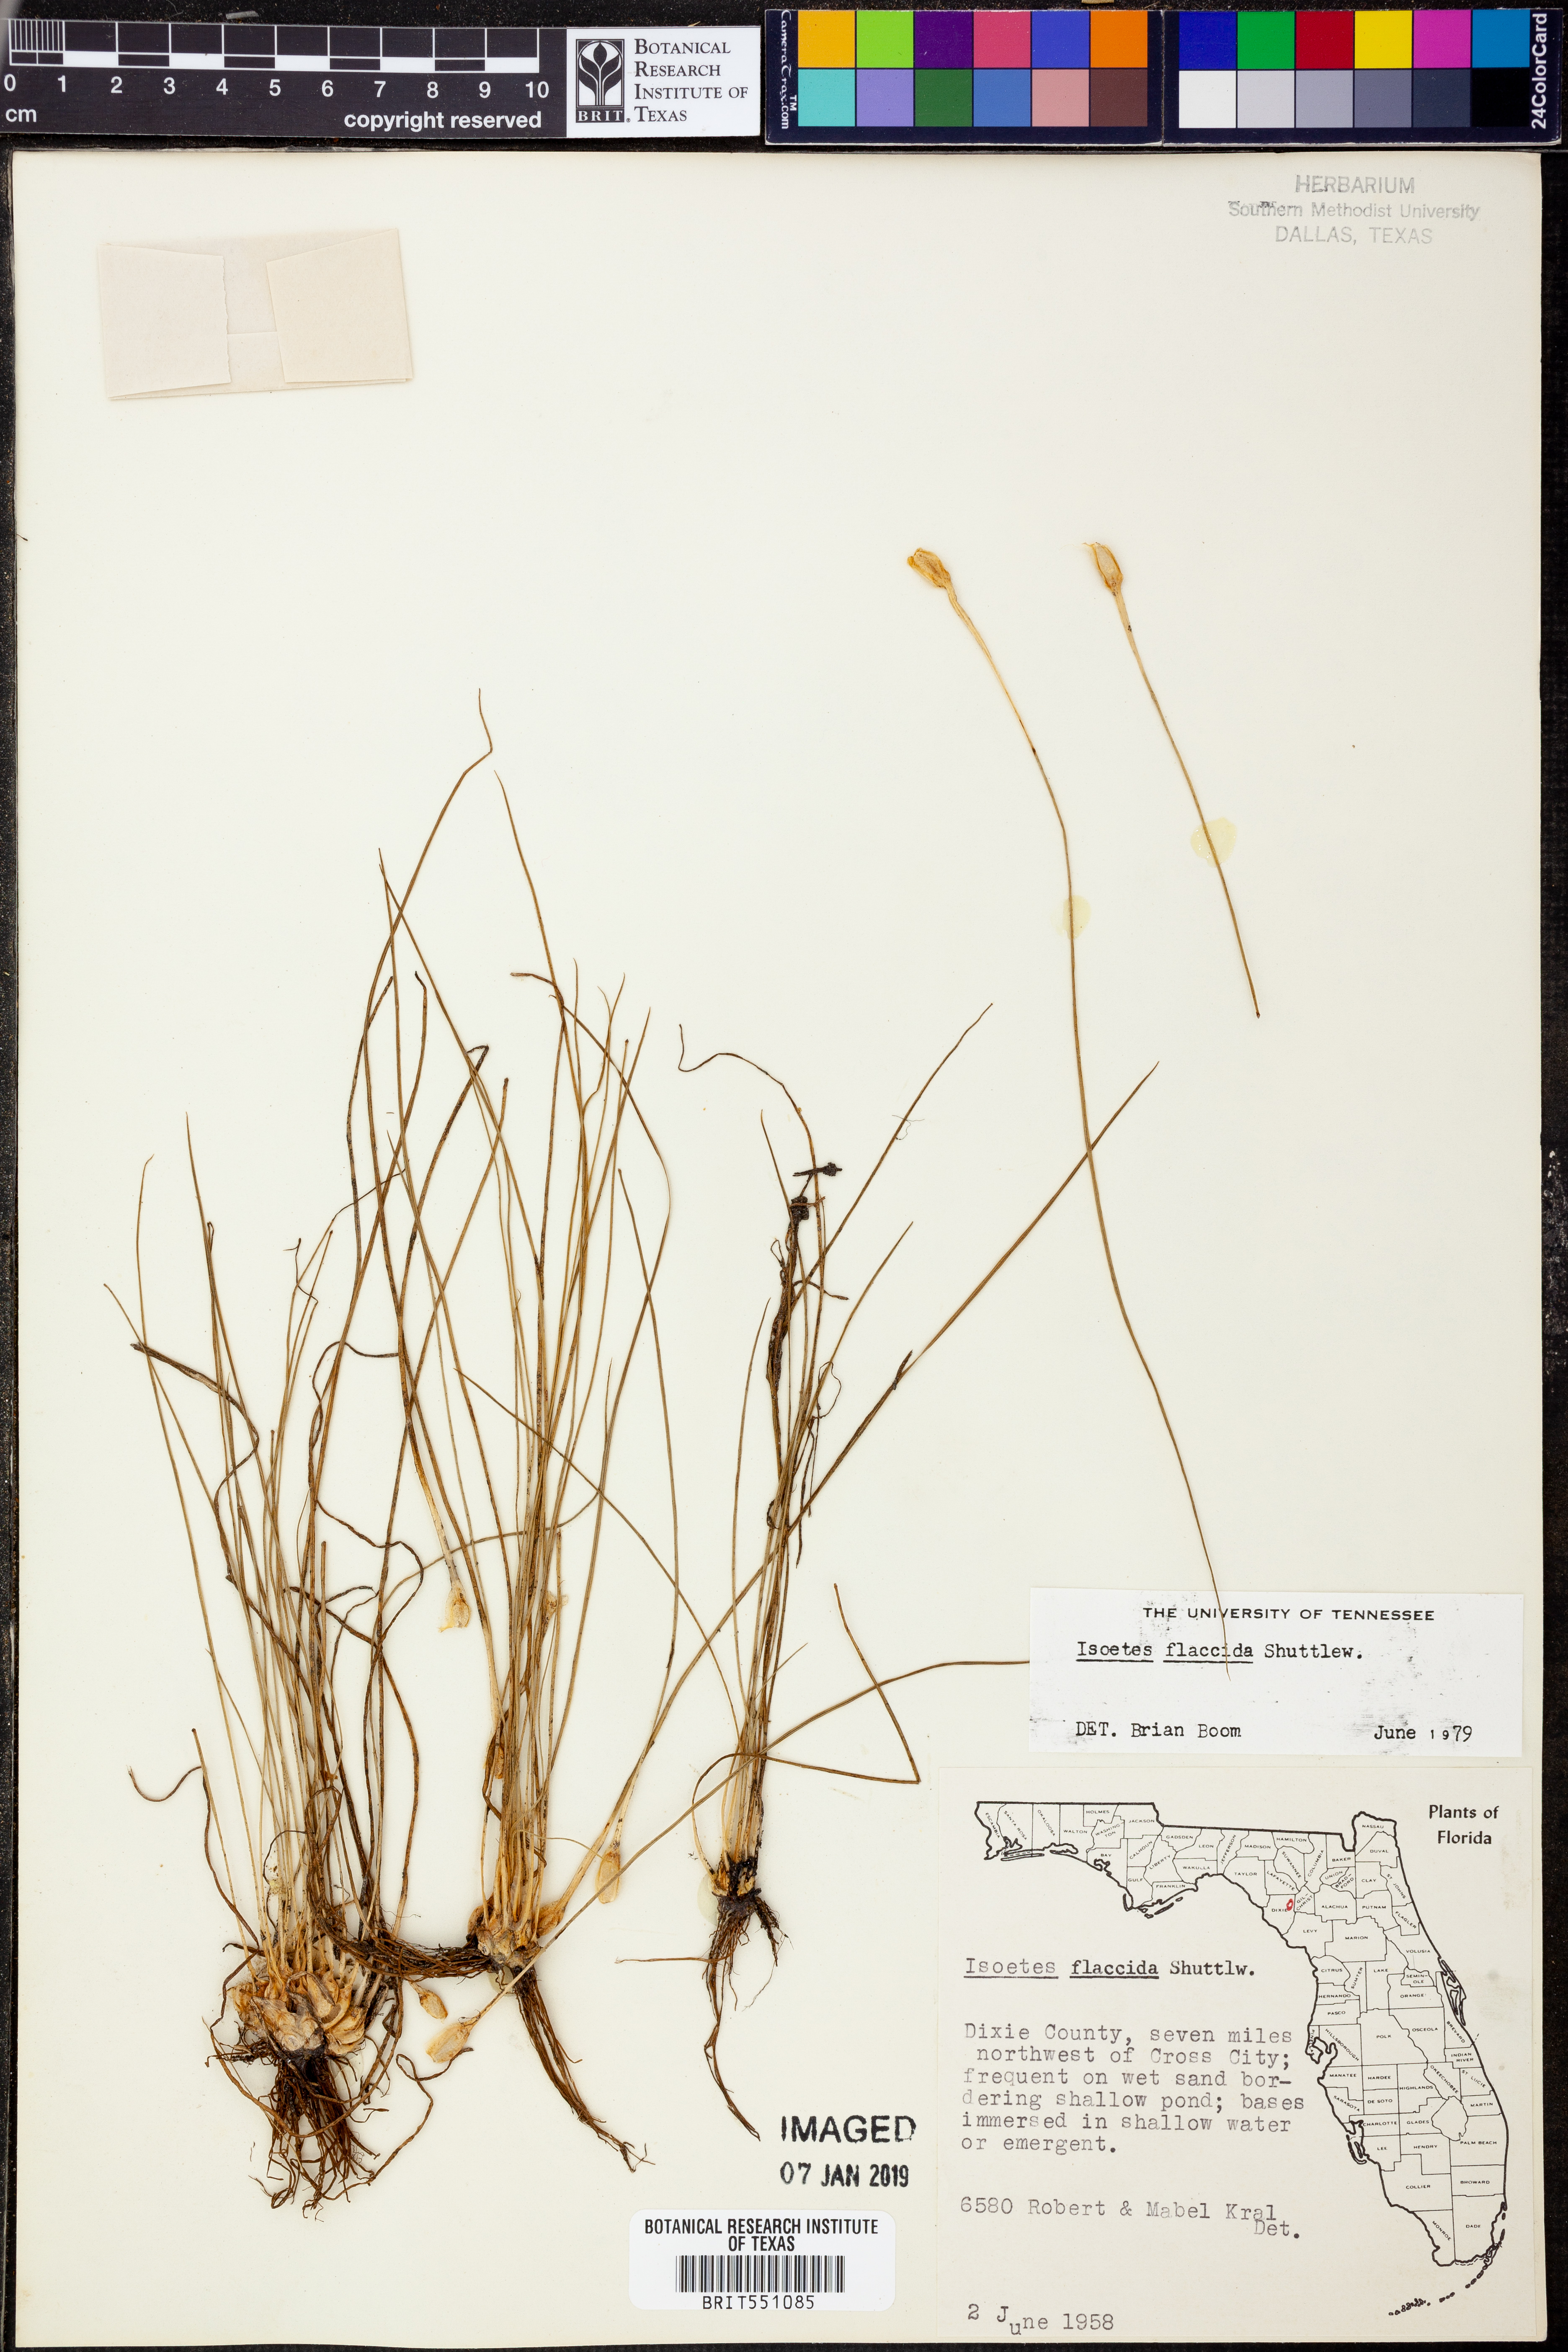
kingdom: Plantae
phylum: Tracheophyta
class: Lycopodiopsida
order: Isoetales
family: Isoetaceae
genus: Isoetes
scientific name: Isoetes flaccida
